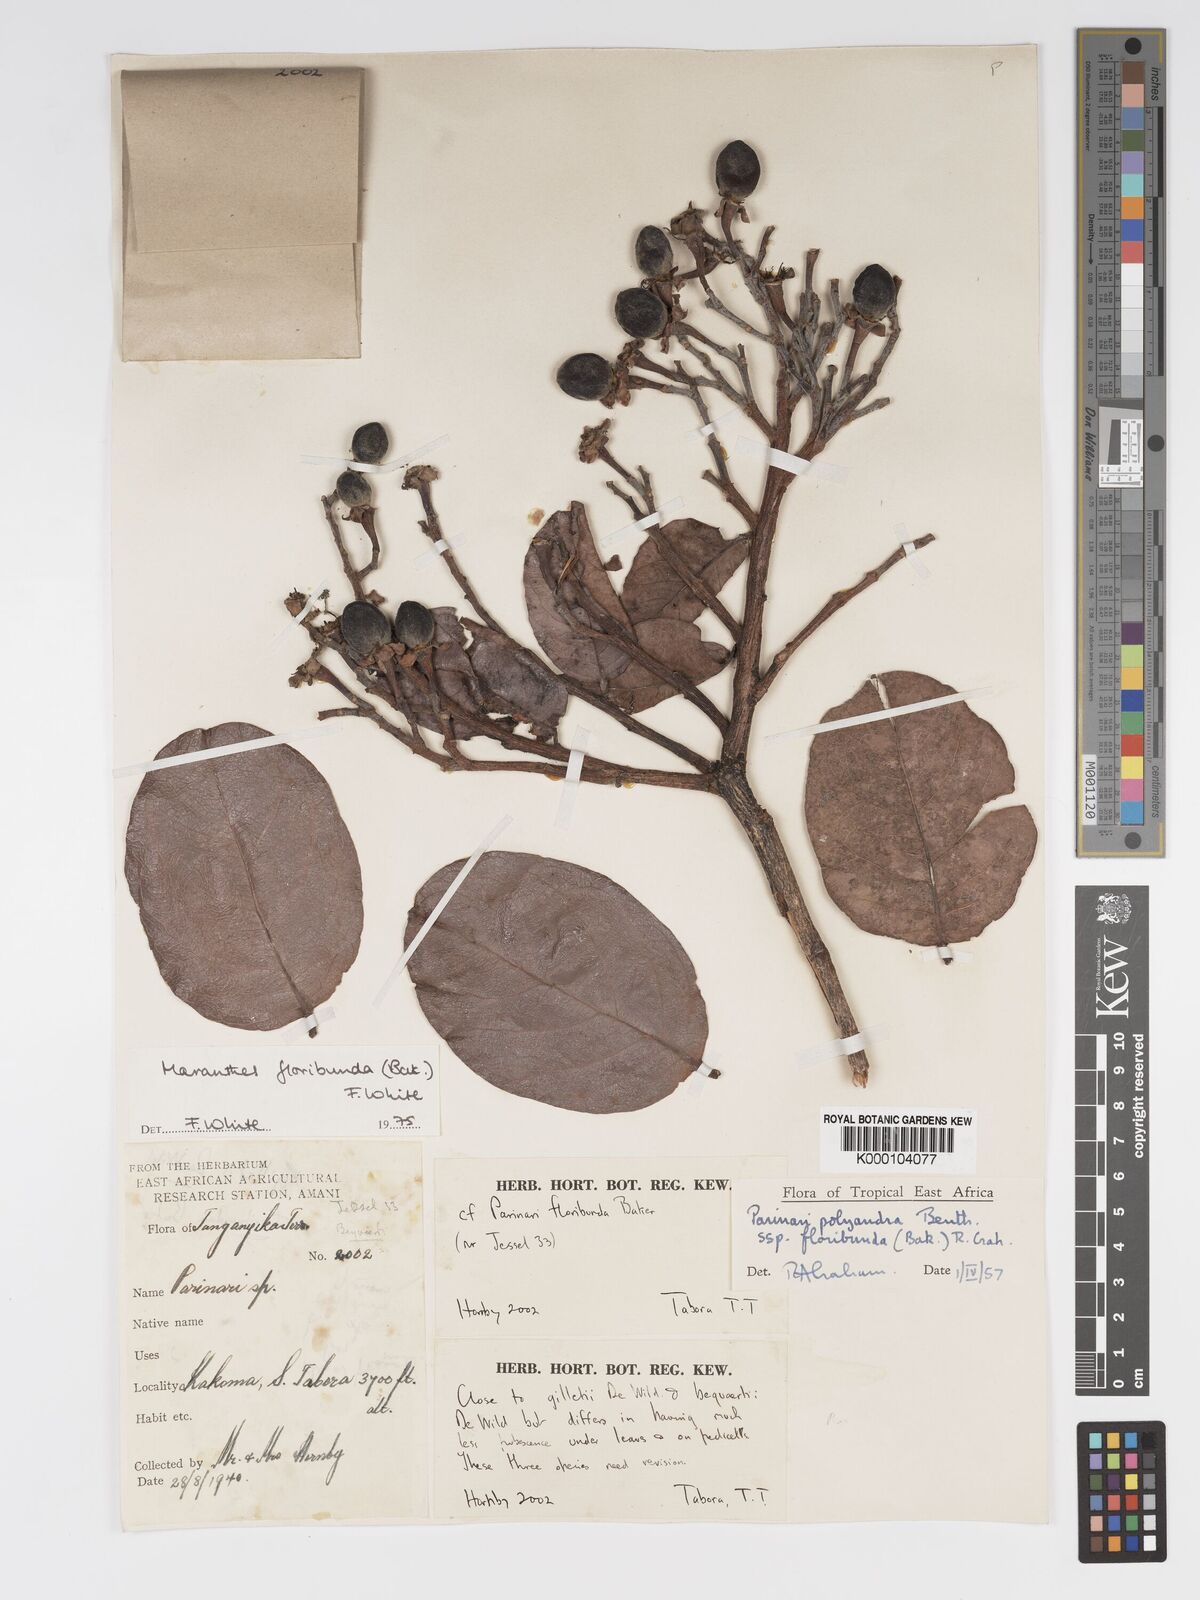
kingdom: Plantae
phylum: Tracheophyta
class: Magnoliopsida
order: Malpighiales
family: Chrysobalanaceae
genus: Maranthes
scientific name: Maranthes floribunda
